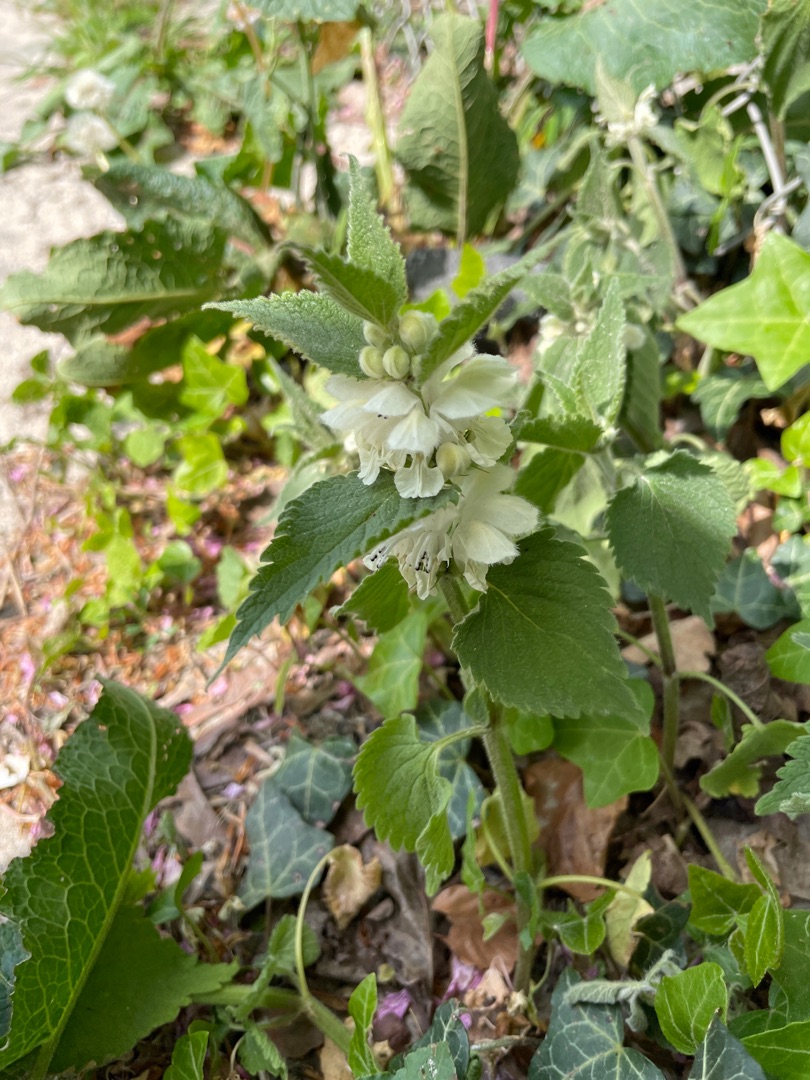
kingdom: Plantae
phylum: Tracheophyta
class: Magnoliopsida
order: Lamiales
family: Lamiaceae
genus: Lamium
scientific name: Lamium album
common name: Døvnælde
